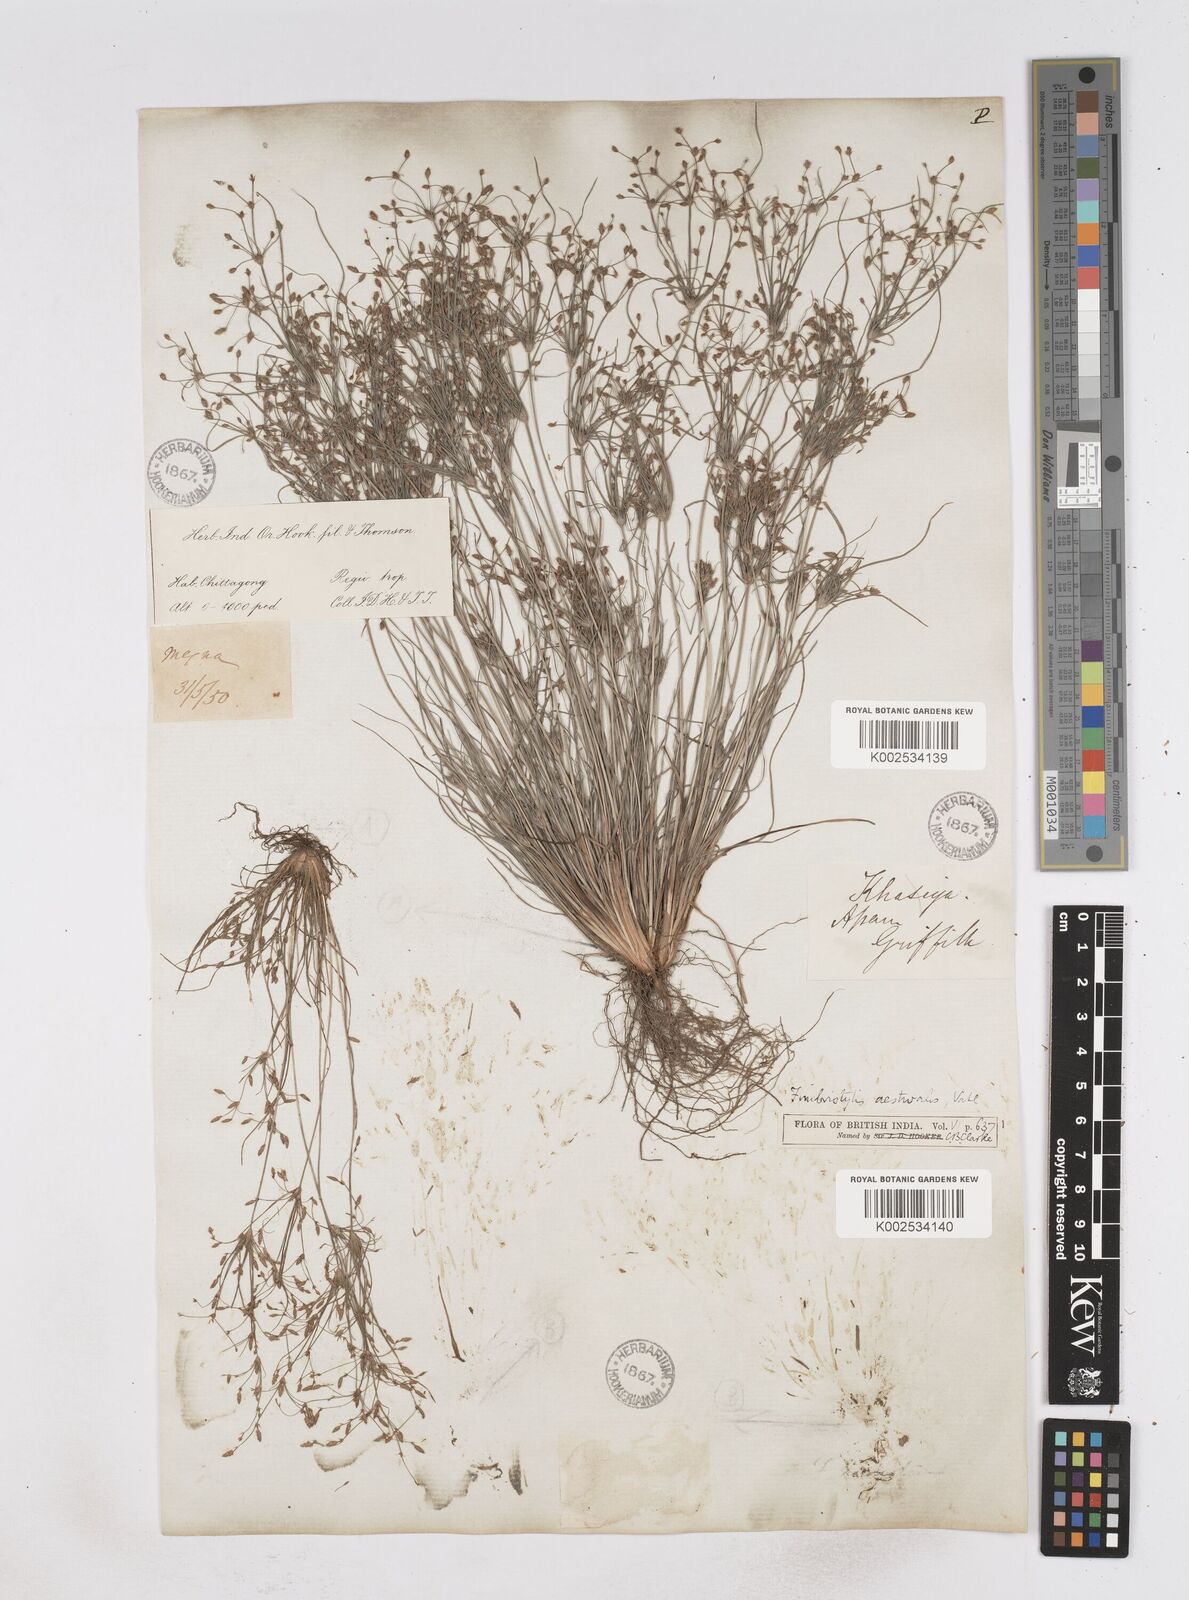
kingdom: Plantae
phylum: Tracheophyta
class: Liliopsida
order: Poales
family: Cyperaceae
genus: Fimbristylis
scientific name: Fimbristylis aestivalis
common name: Summer fimbry
